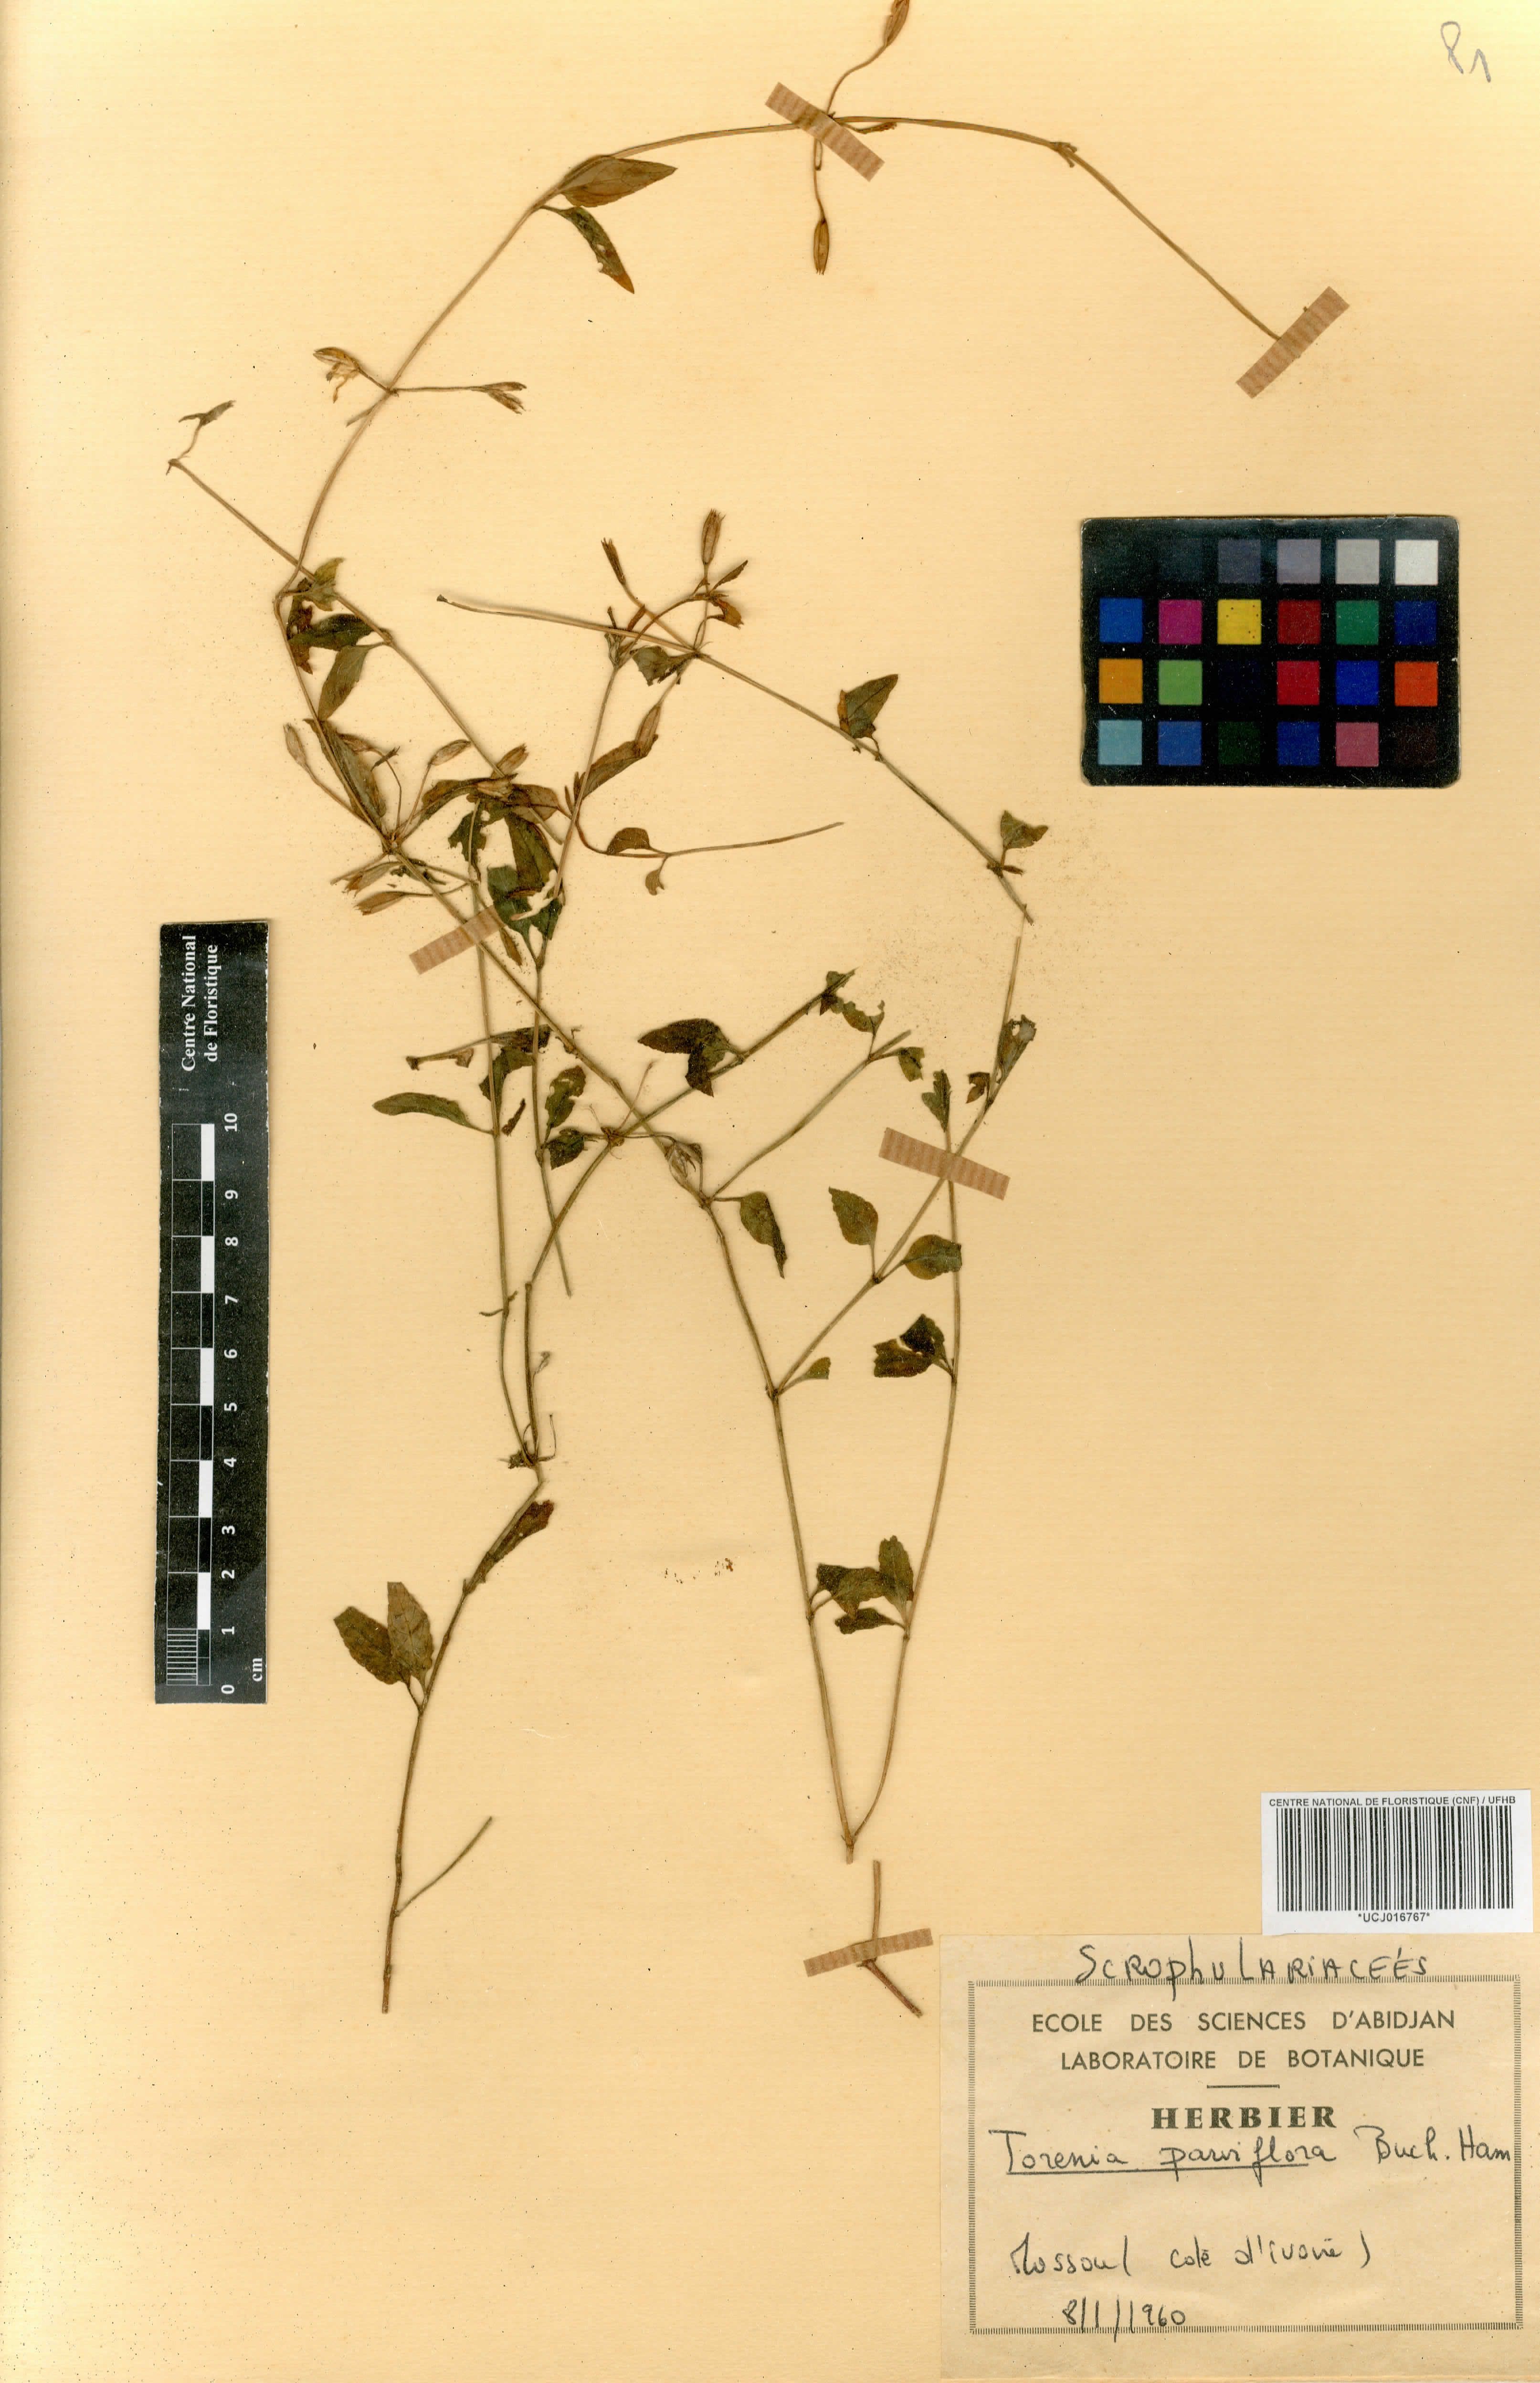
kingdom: Plantae
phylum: Tracheophyta
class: Magnoliopsida
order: Lamiales
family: Linderniaceae
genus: Torenia
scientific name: Torenia thouarsii
